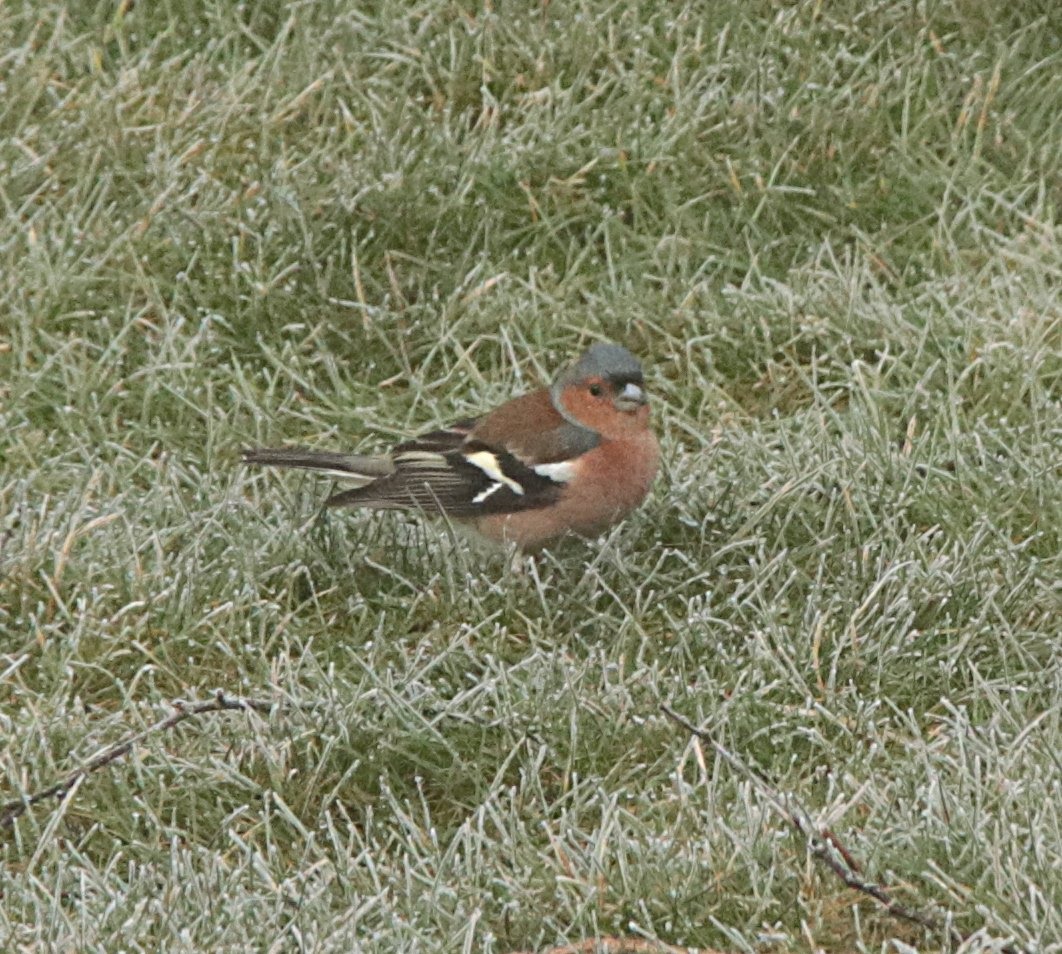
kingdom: Animalia
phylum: Chordata
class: Aves
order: Passeriformes
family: Fringillidae
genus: Fringilla
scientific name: Fringilla coelebs
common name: Bogfinke
